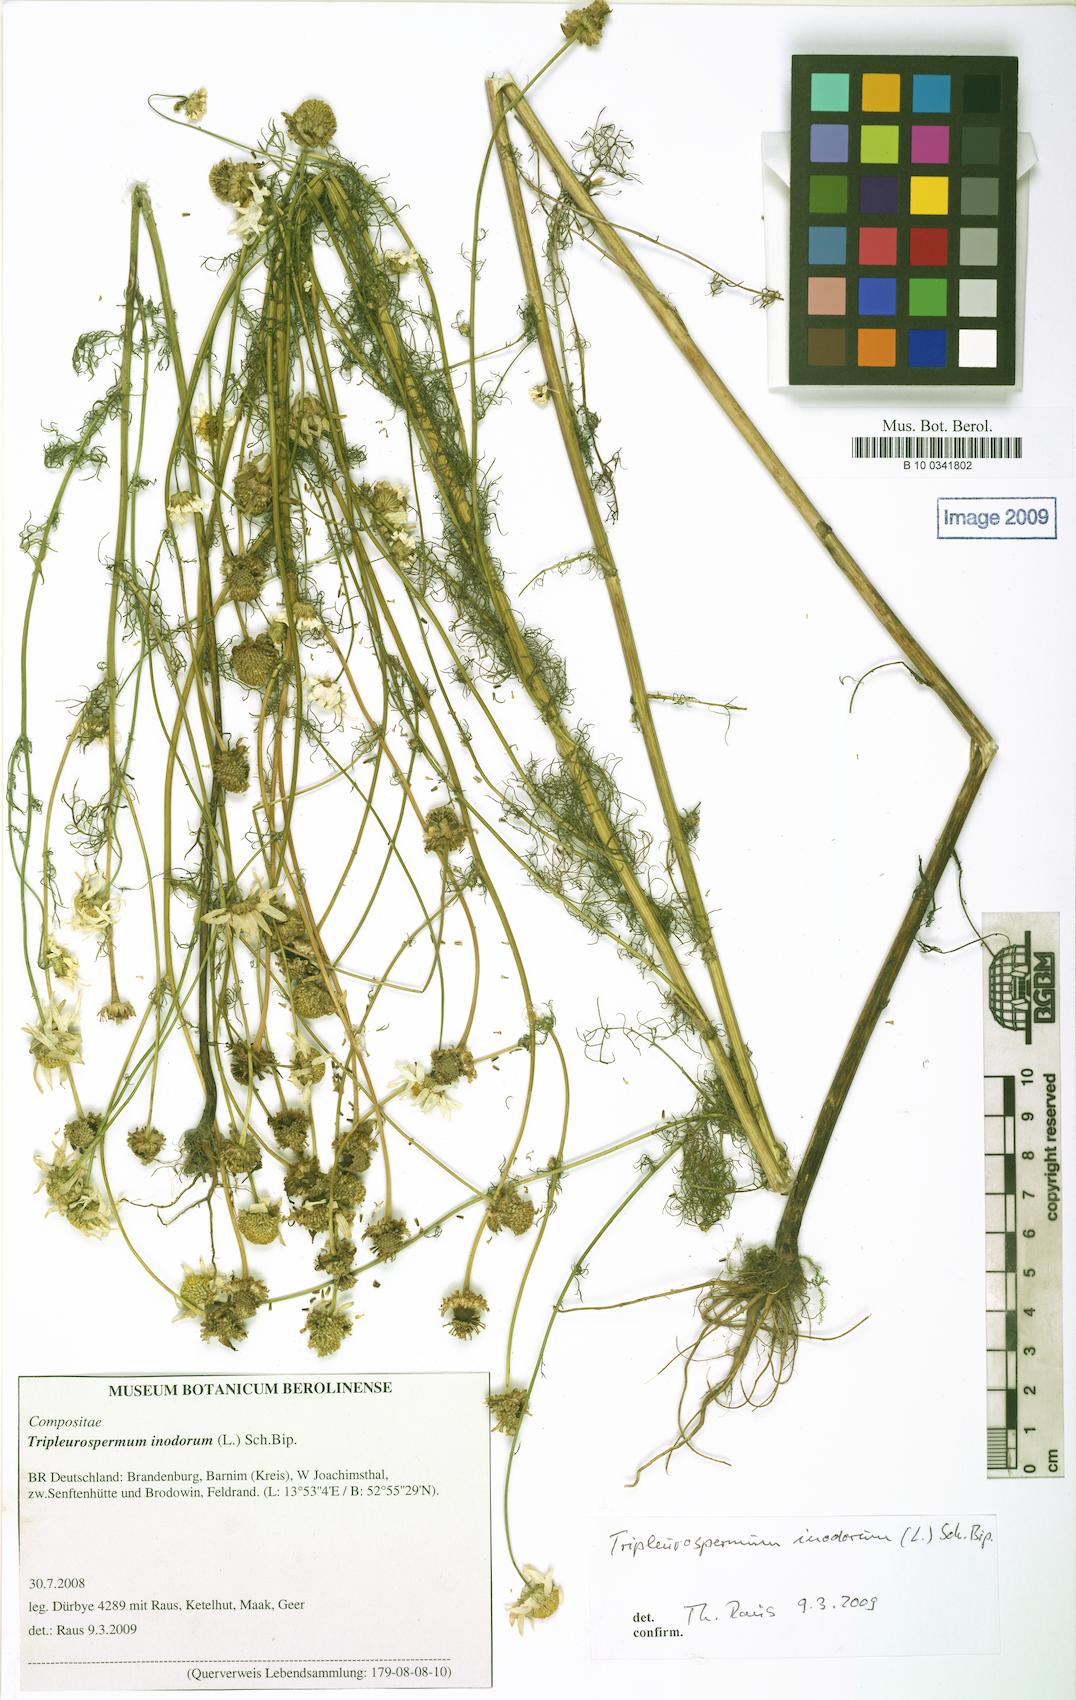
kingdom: Plantae
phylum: Tracheophyta
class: Magnoliopsida
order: Asterales
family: Asteraceae
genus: Tripleurospermum
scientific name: Tripleurospermum inodorum
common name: Scentless mayweed
